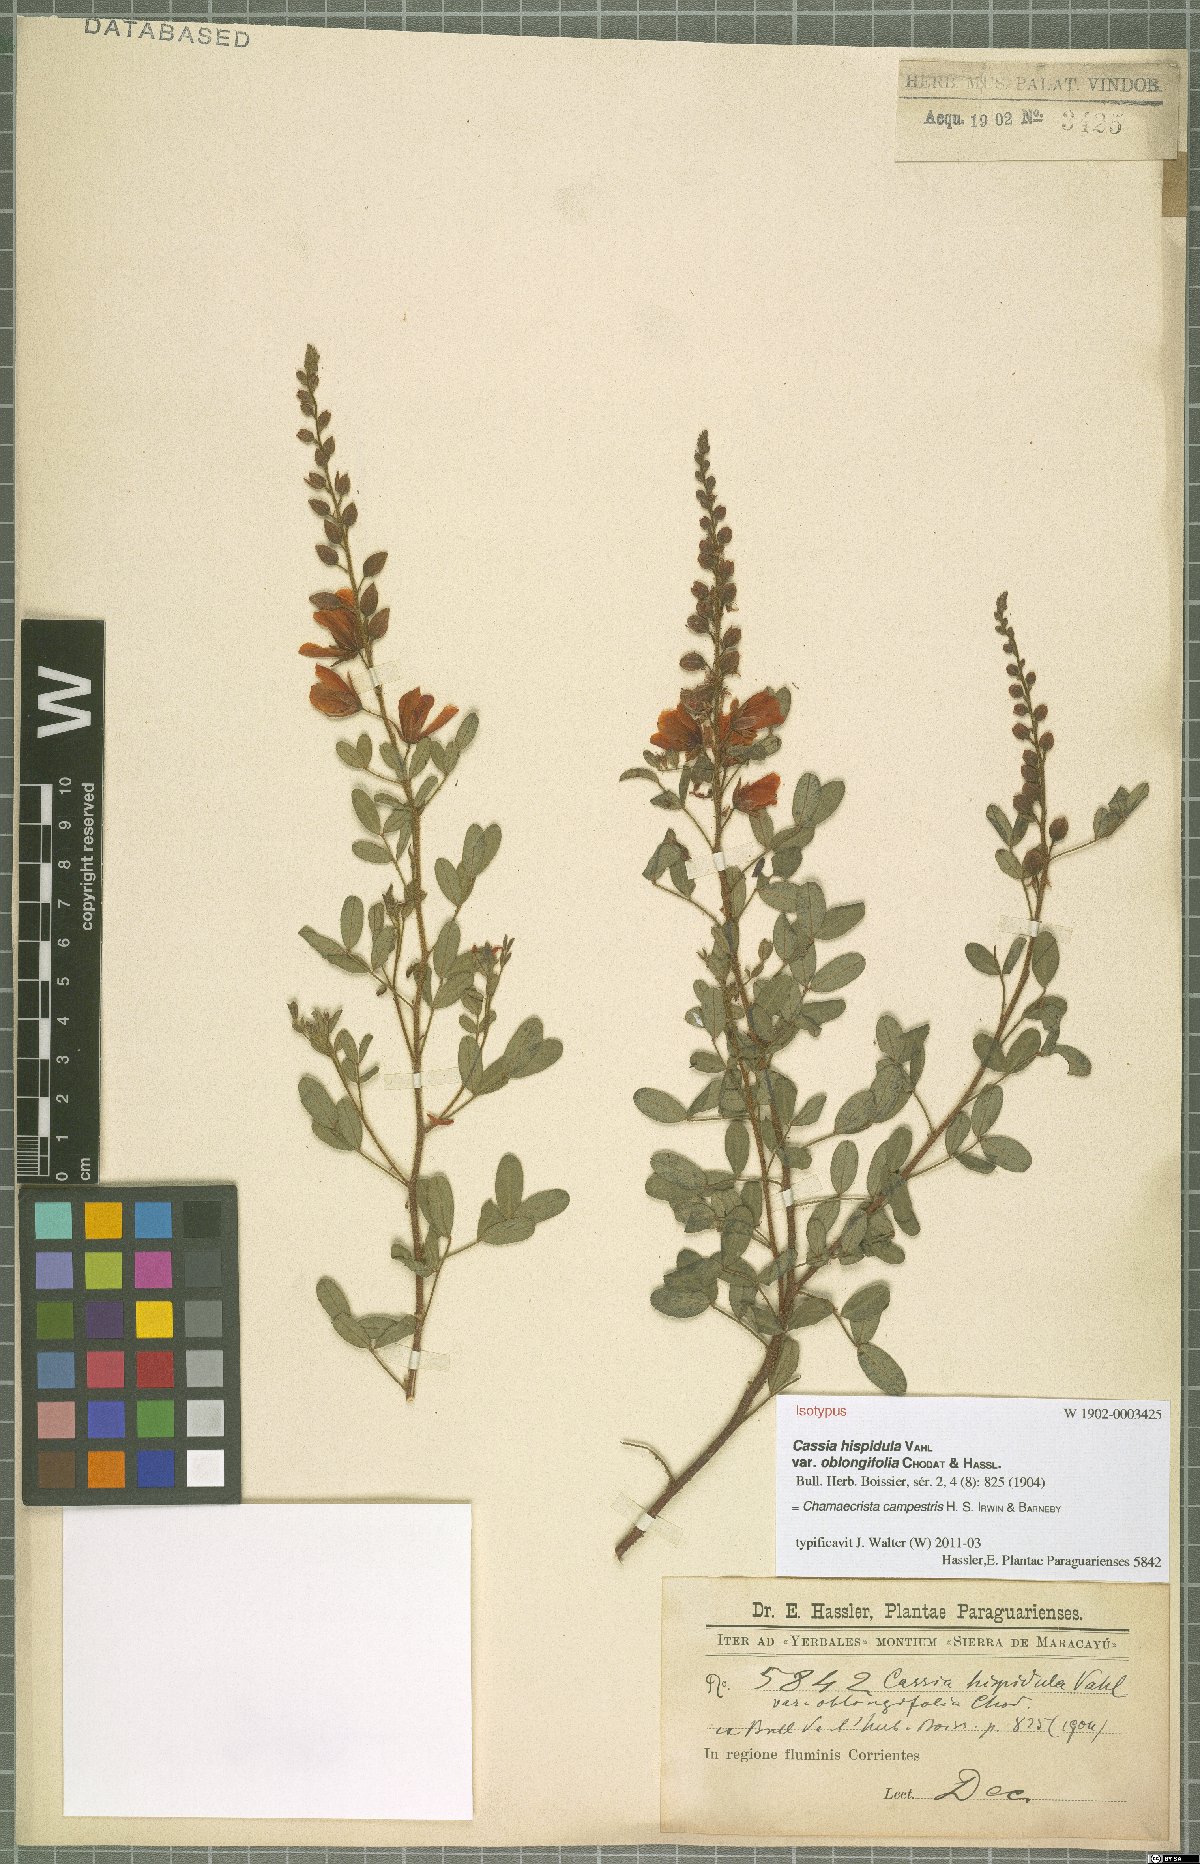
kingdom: Plantae
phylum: Tracheophyta
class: Magnoliopsida
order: Fabales
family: Fabaceae
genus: Chamaecrista
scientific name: Chamaecrista campestris
